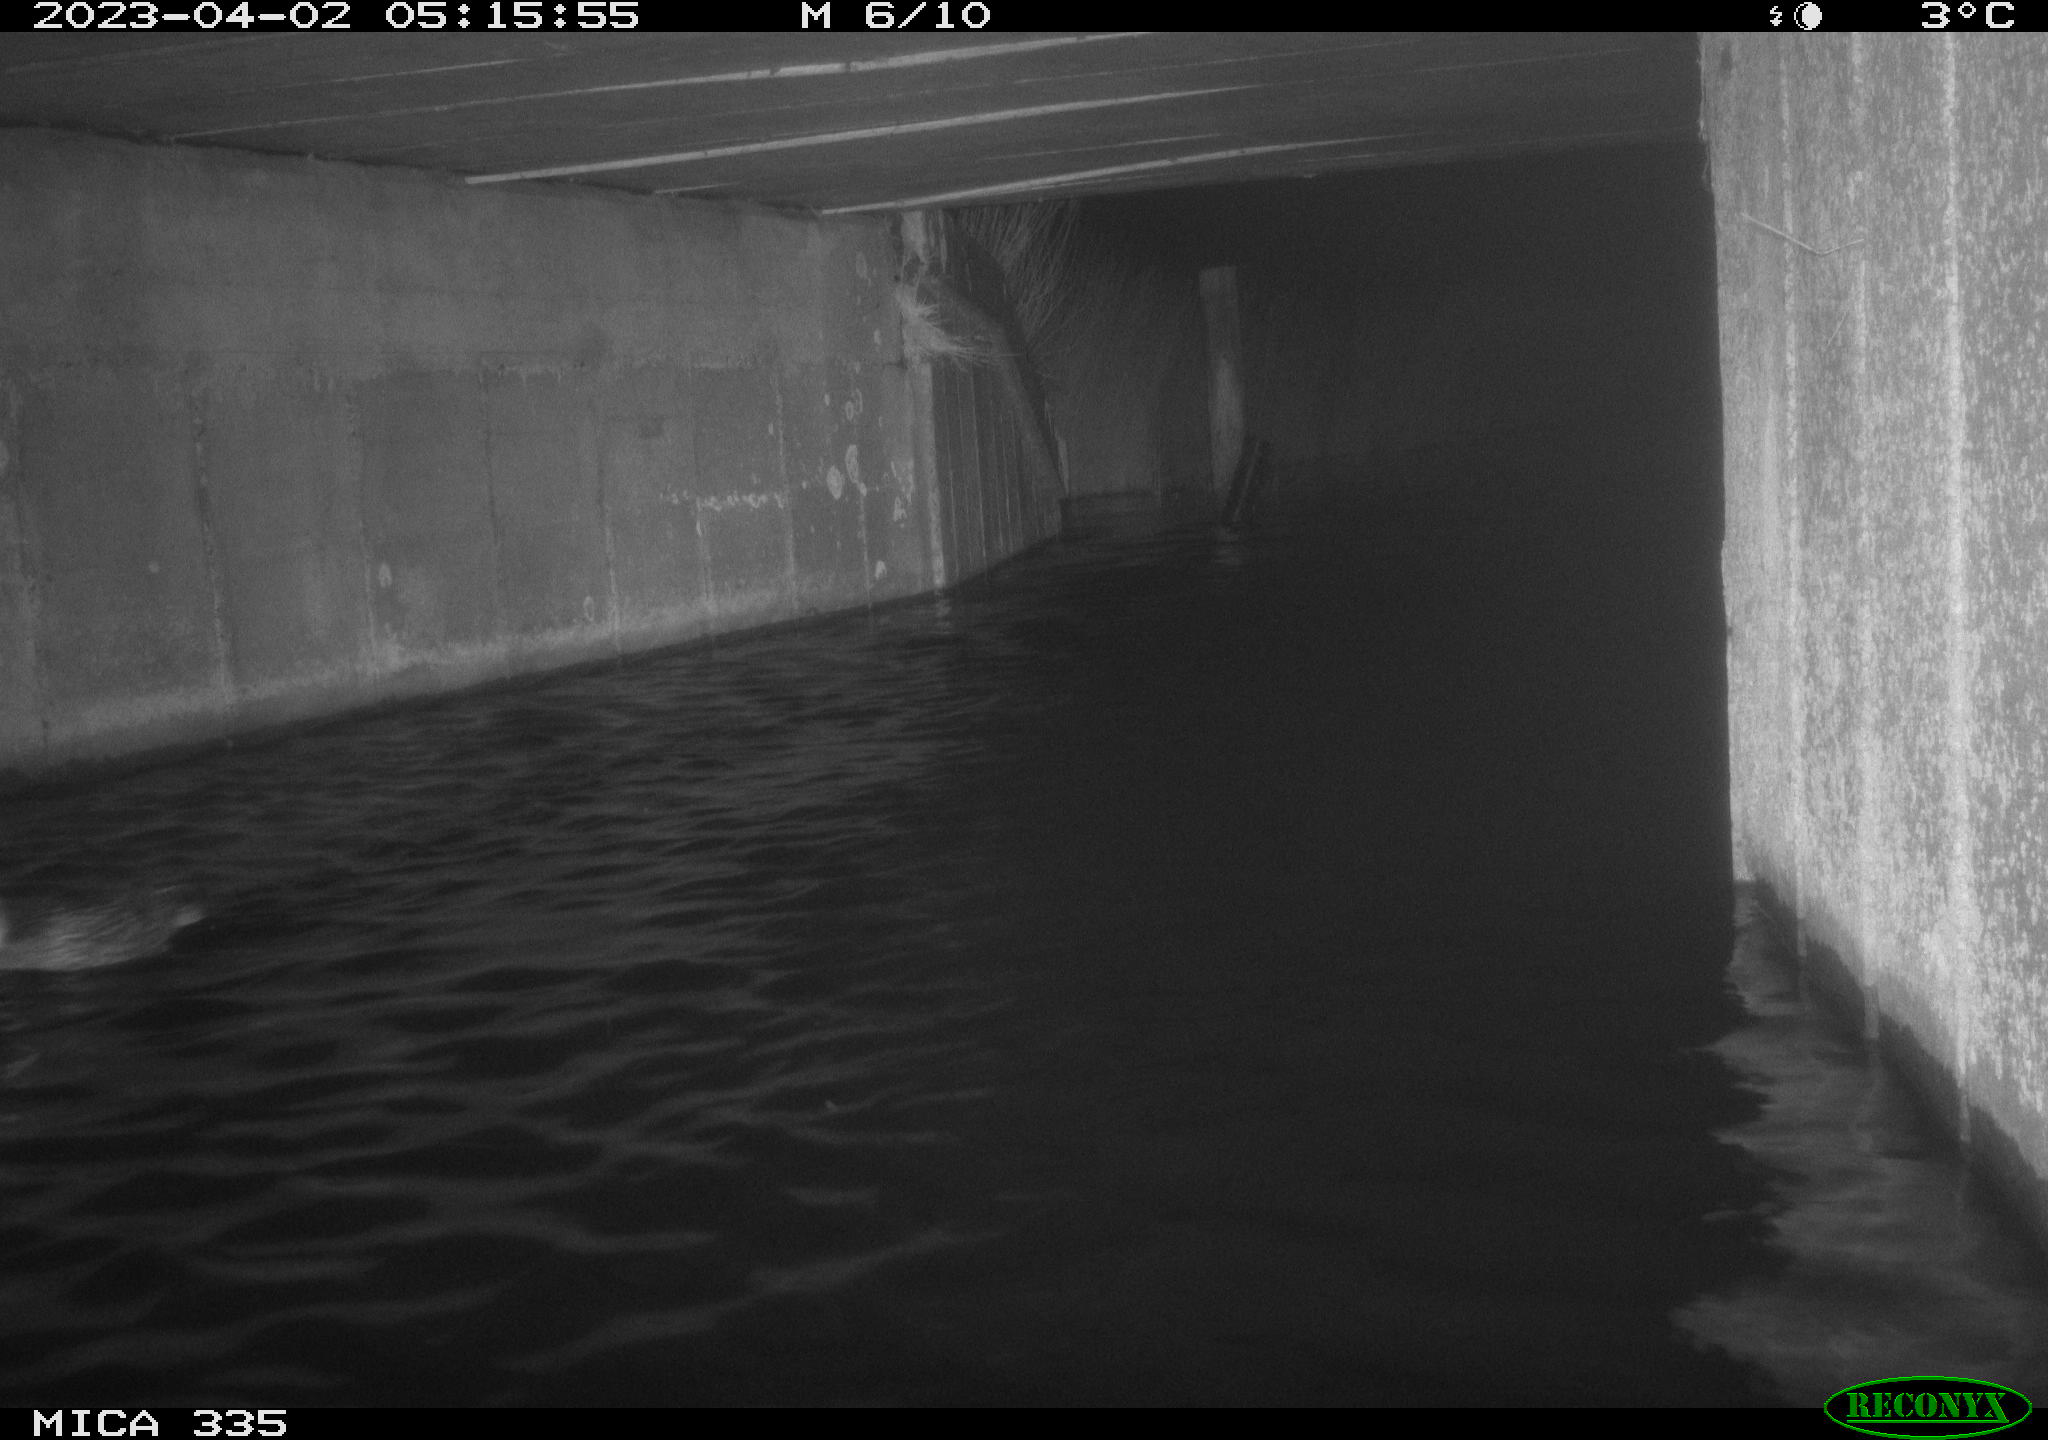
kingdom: Animalia
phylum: Chordata
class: Aves
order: Anseriformes
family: Anatidae
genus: Anas
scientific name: Anas
